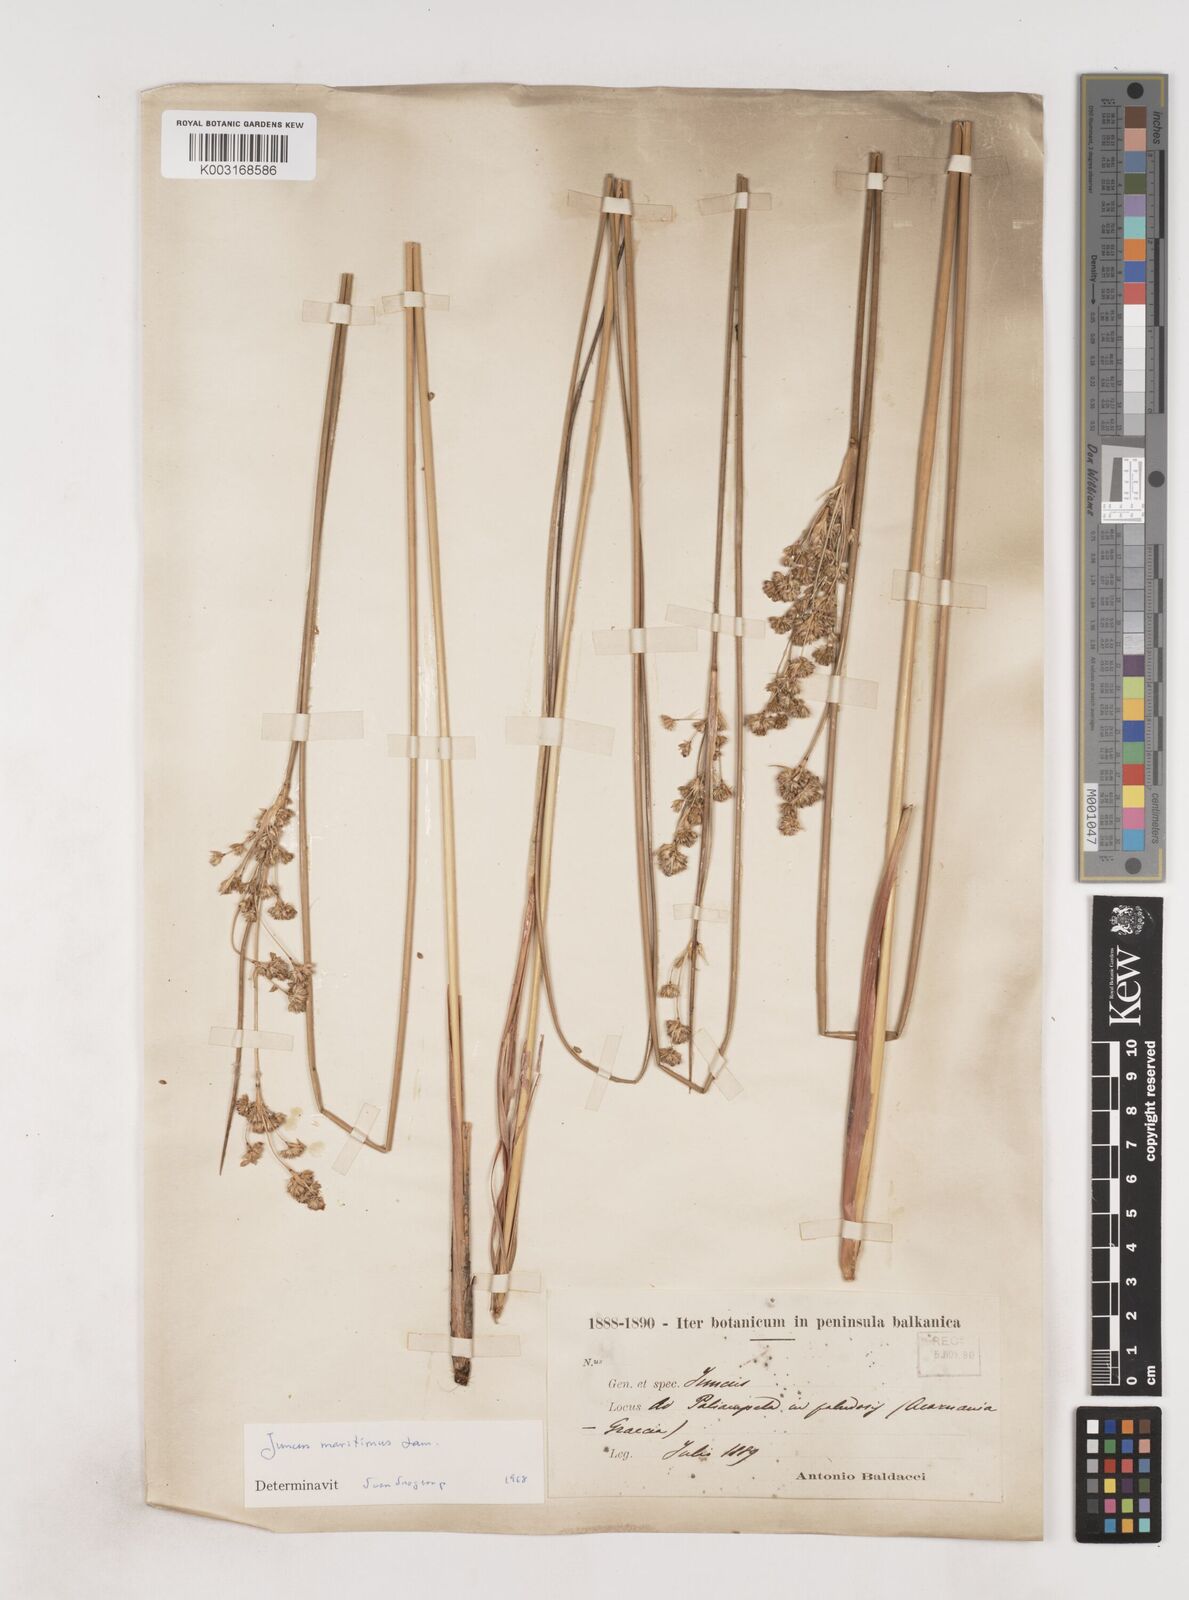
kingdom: Plantae
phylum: Tracheophyta
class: Liliopsida
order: Poales
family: Juncaceae
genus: Juncus
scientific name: Juncus maritimus
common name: Sea rush
